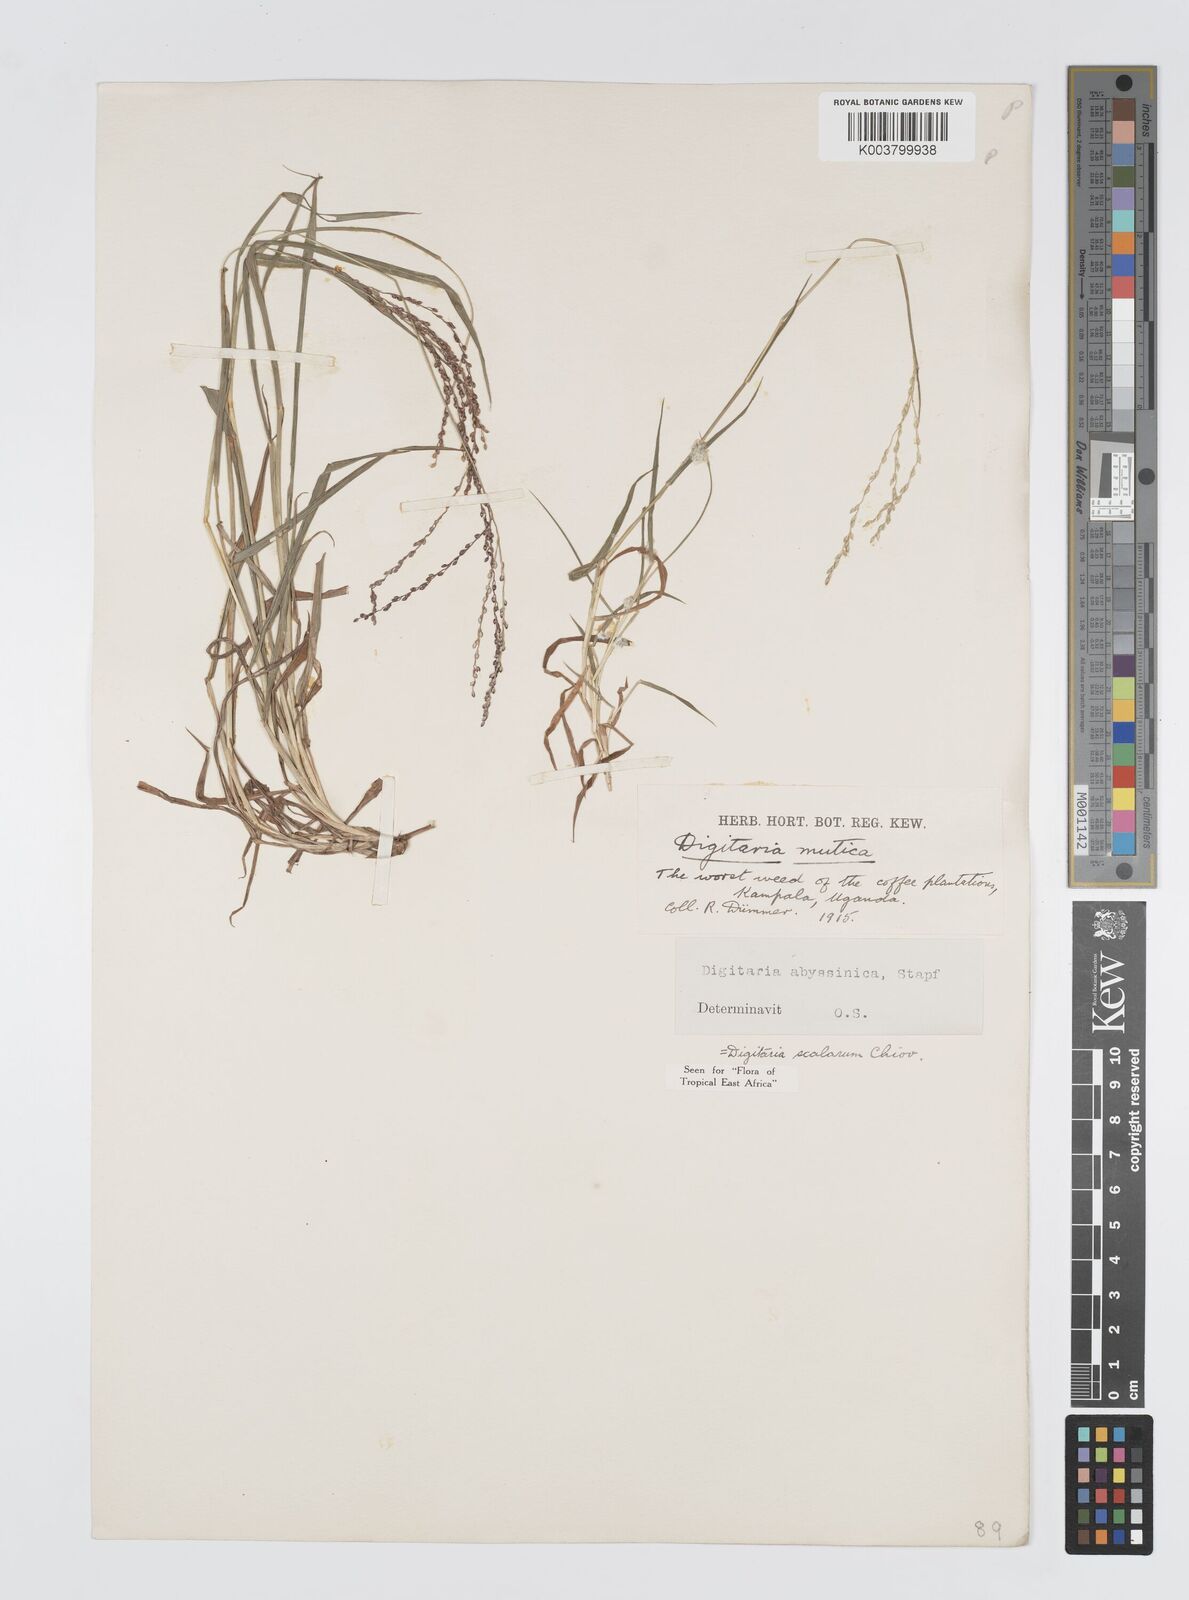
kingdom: Plantae
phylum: Tracheophyta
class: Liliopsida
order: Poales
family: Poaceae
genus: Digitaria
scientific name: Digitaria abyssinica
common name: African couchgrass
